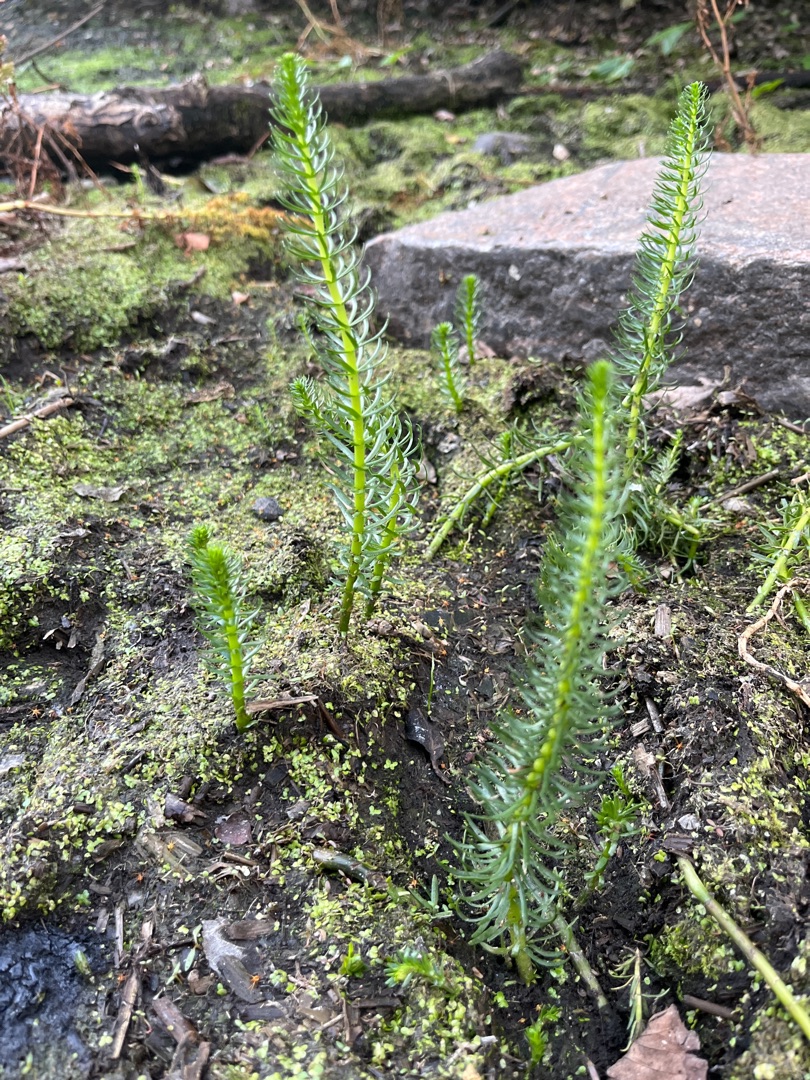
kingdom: Plantae
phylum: Tracheophyta
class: Magnoliopsida
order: Lamiales
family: Plantaginaceae
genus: Hippuris
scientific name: Hippuris vulgaris
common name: Vandspir
